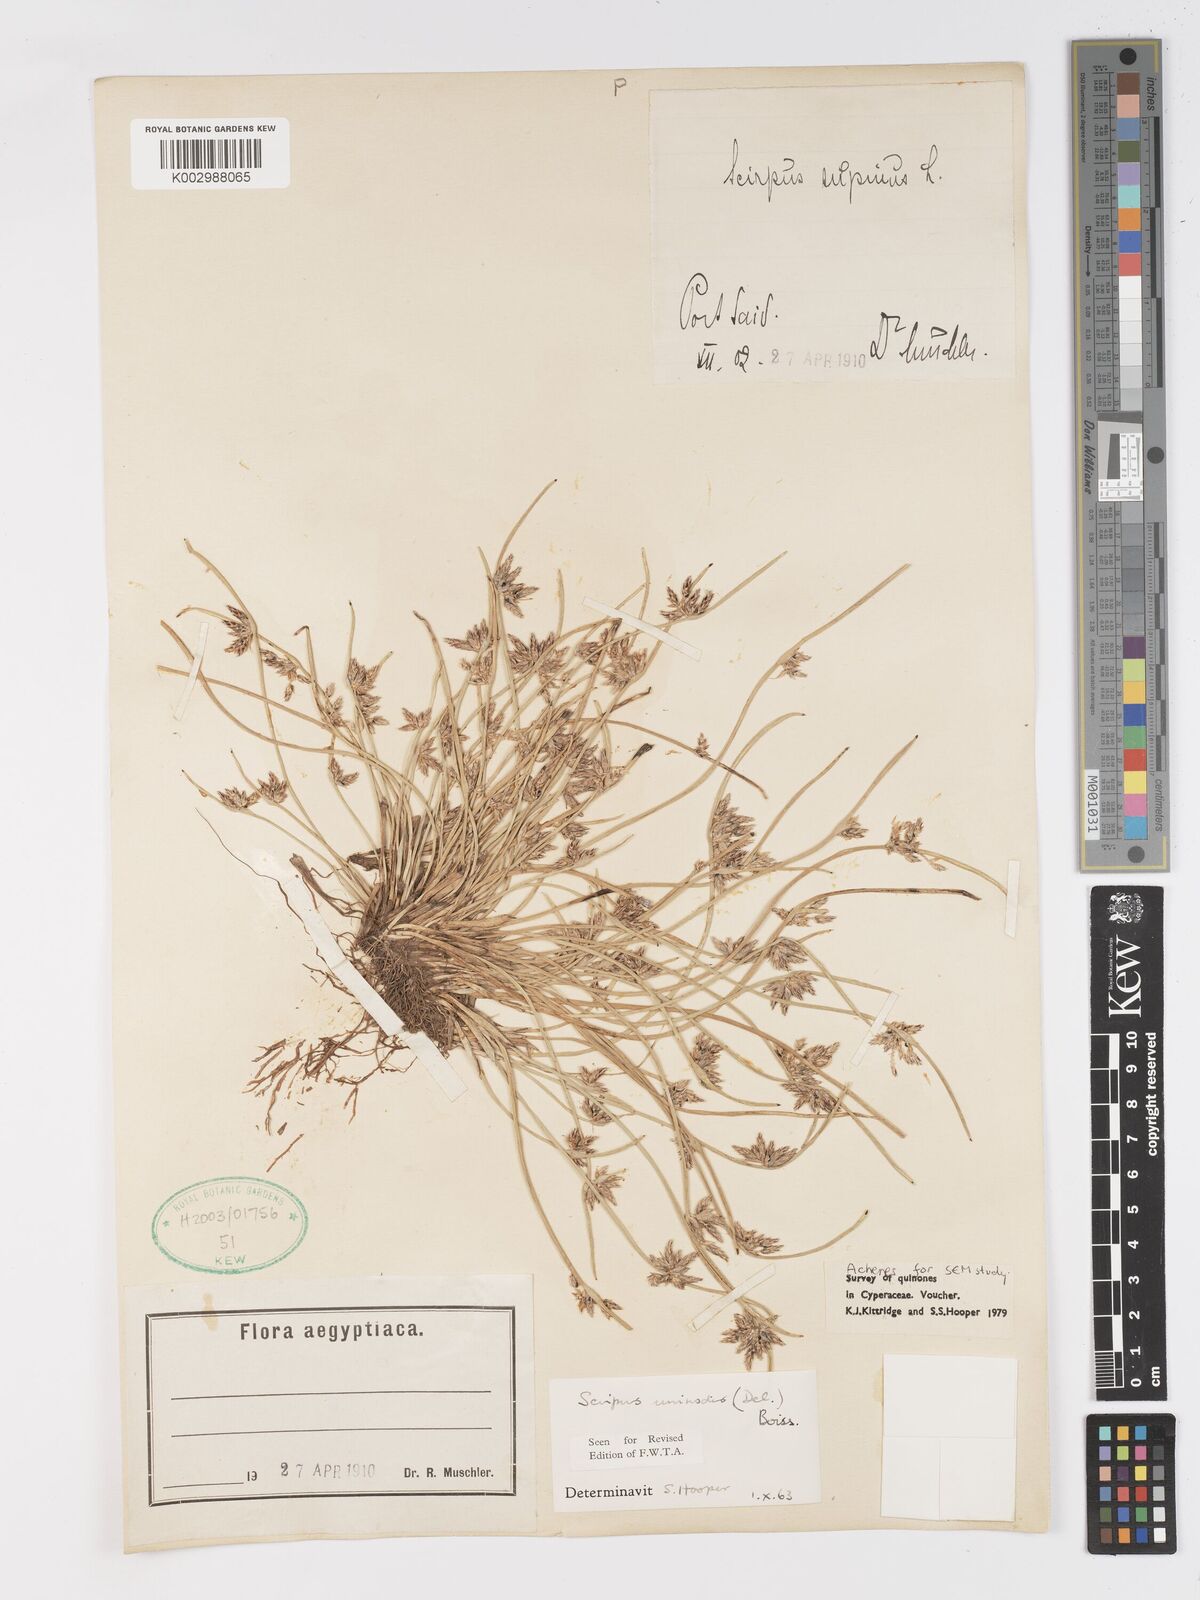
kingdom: Plantae
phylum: Tracheophyta
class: Liliopsida
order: Poales
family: Cyperaceae
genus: Schoenoplectus
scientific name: Schoenoplectus
